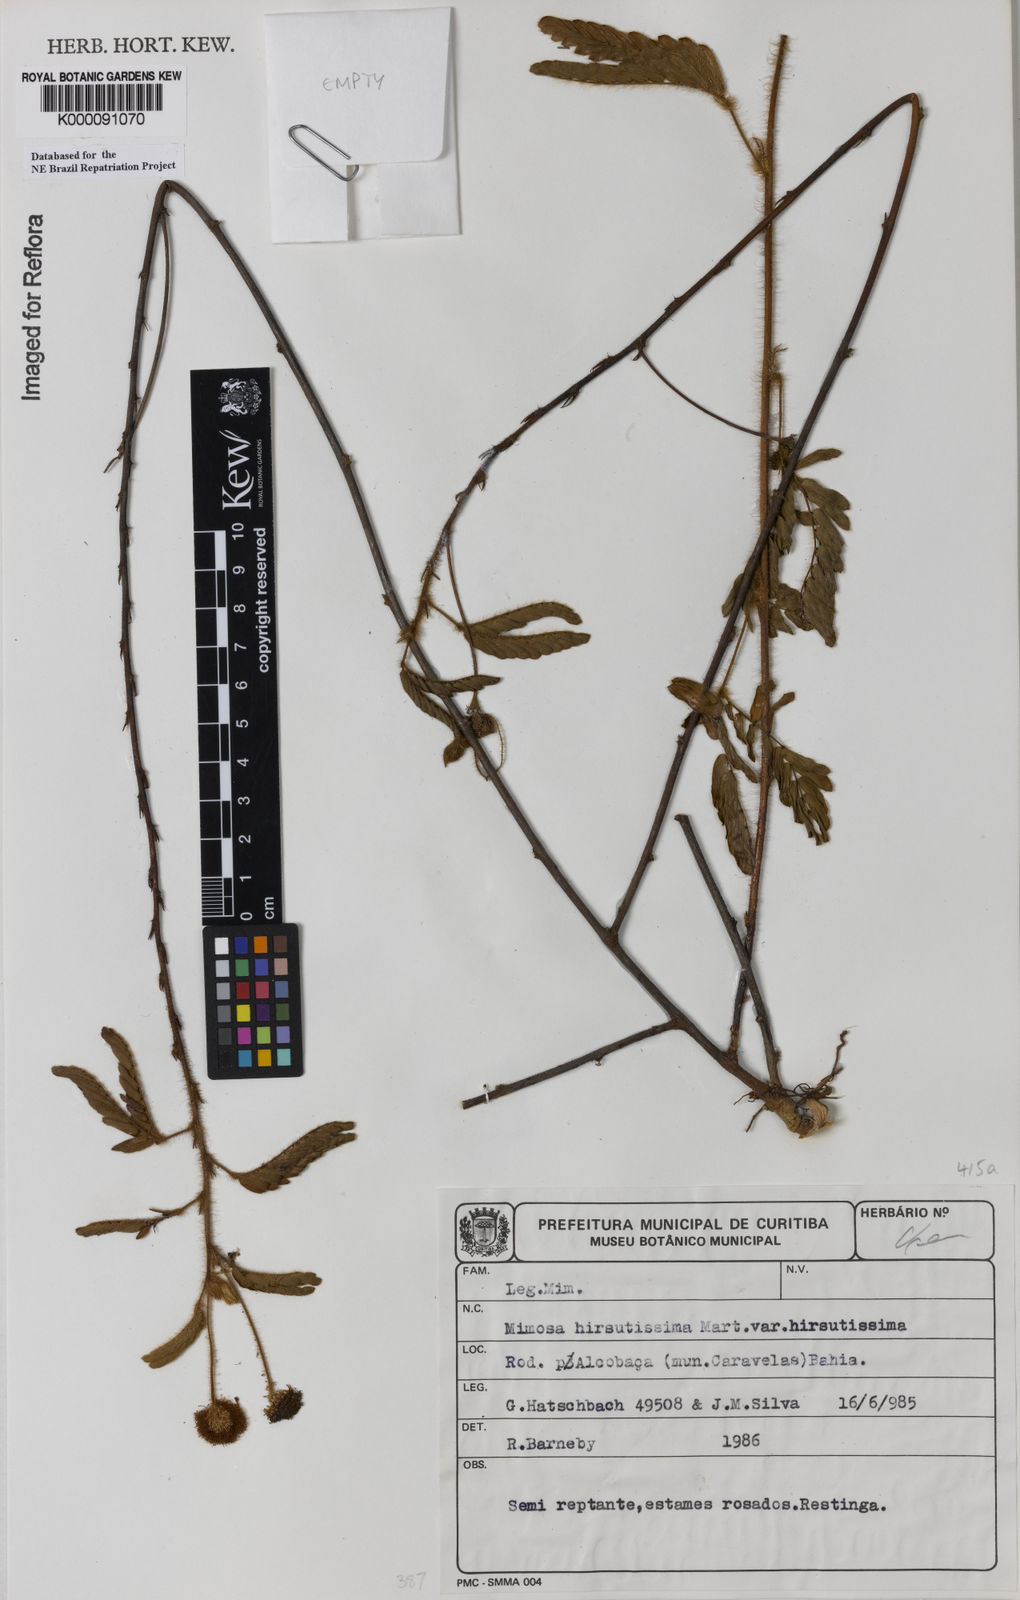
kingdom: Plantae
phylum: Tracheophyta
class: Magnoliopsida
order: Fabales
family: Fabaceae
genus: Mimosa
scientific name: Mimosa hirsutissima
